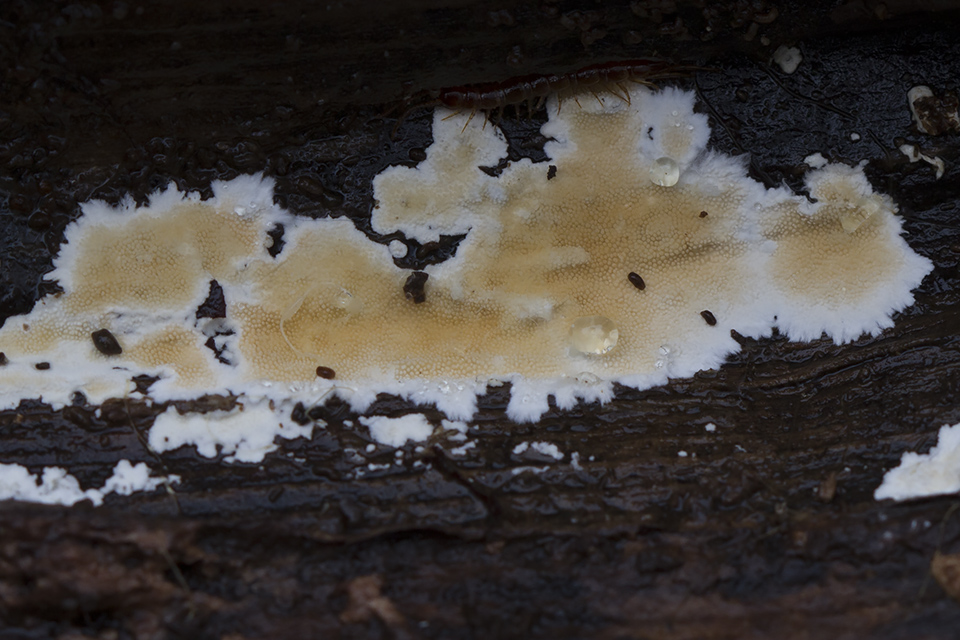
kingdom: Fungi
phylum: Basidiomycota
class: Agaricomycetes
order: Polyporales
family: Steccherinaceae
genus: Steccherinum
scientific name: Steccherinum ochraceum
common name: almindelig skønpig
